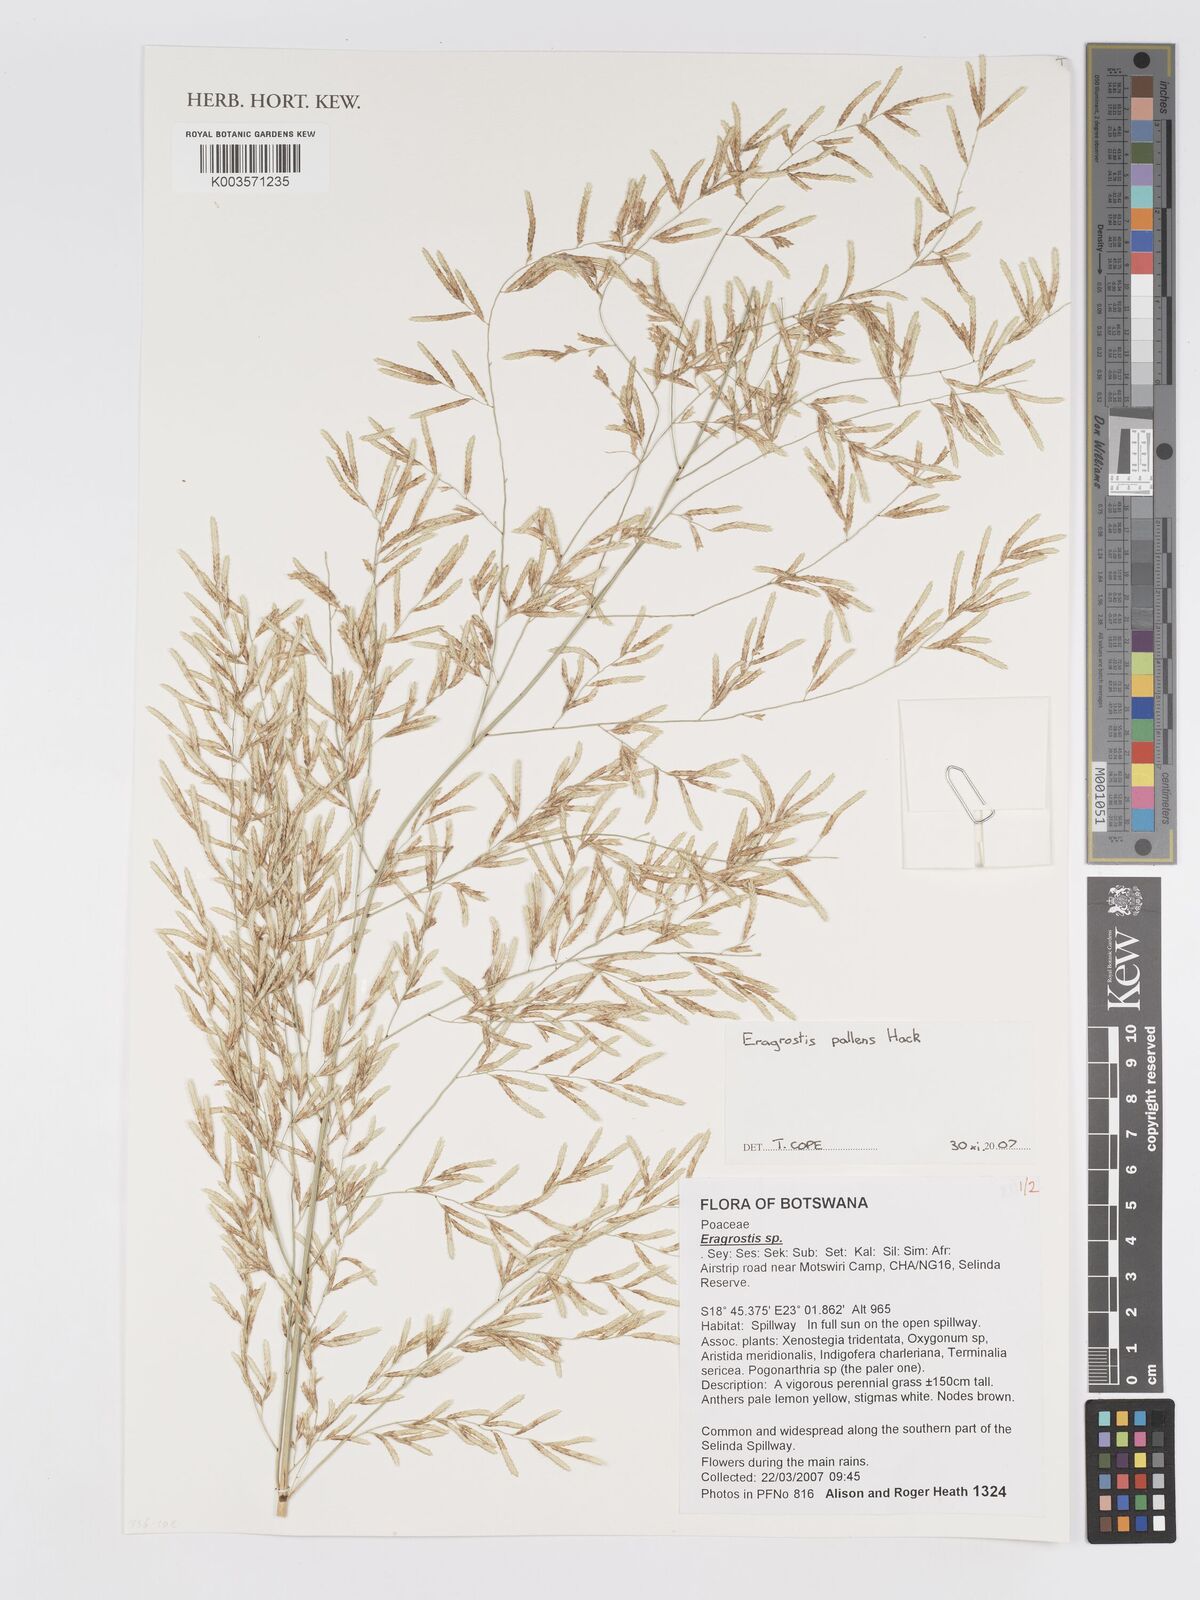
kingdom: Plantae
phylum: Tracheophyta
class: Liliopsida
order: Poales
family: Poaceae
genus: Eragrostis
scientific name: Eragrostis pallens
